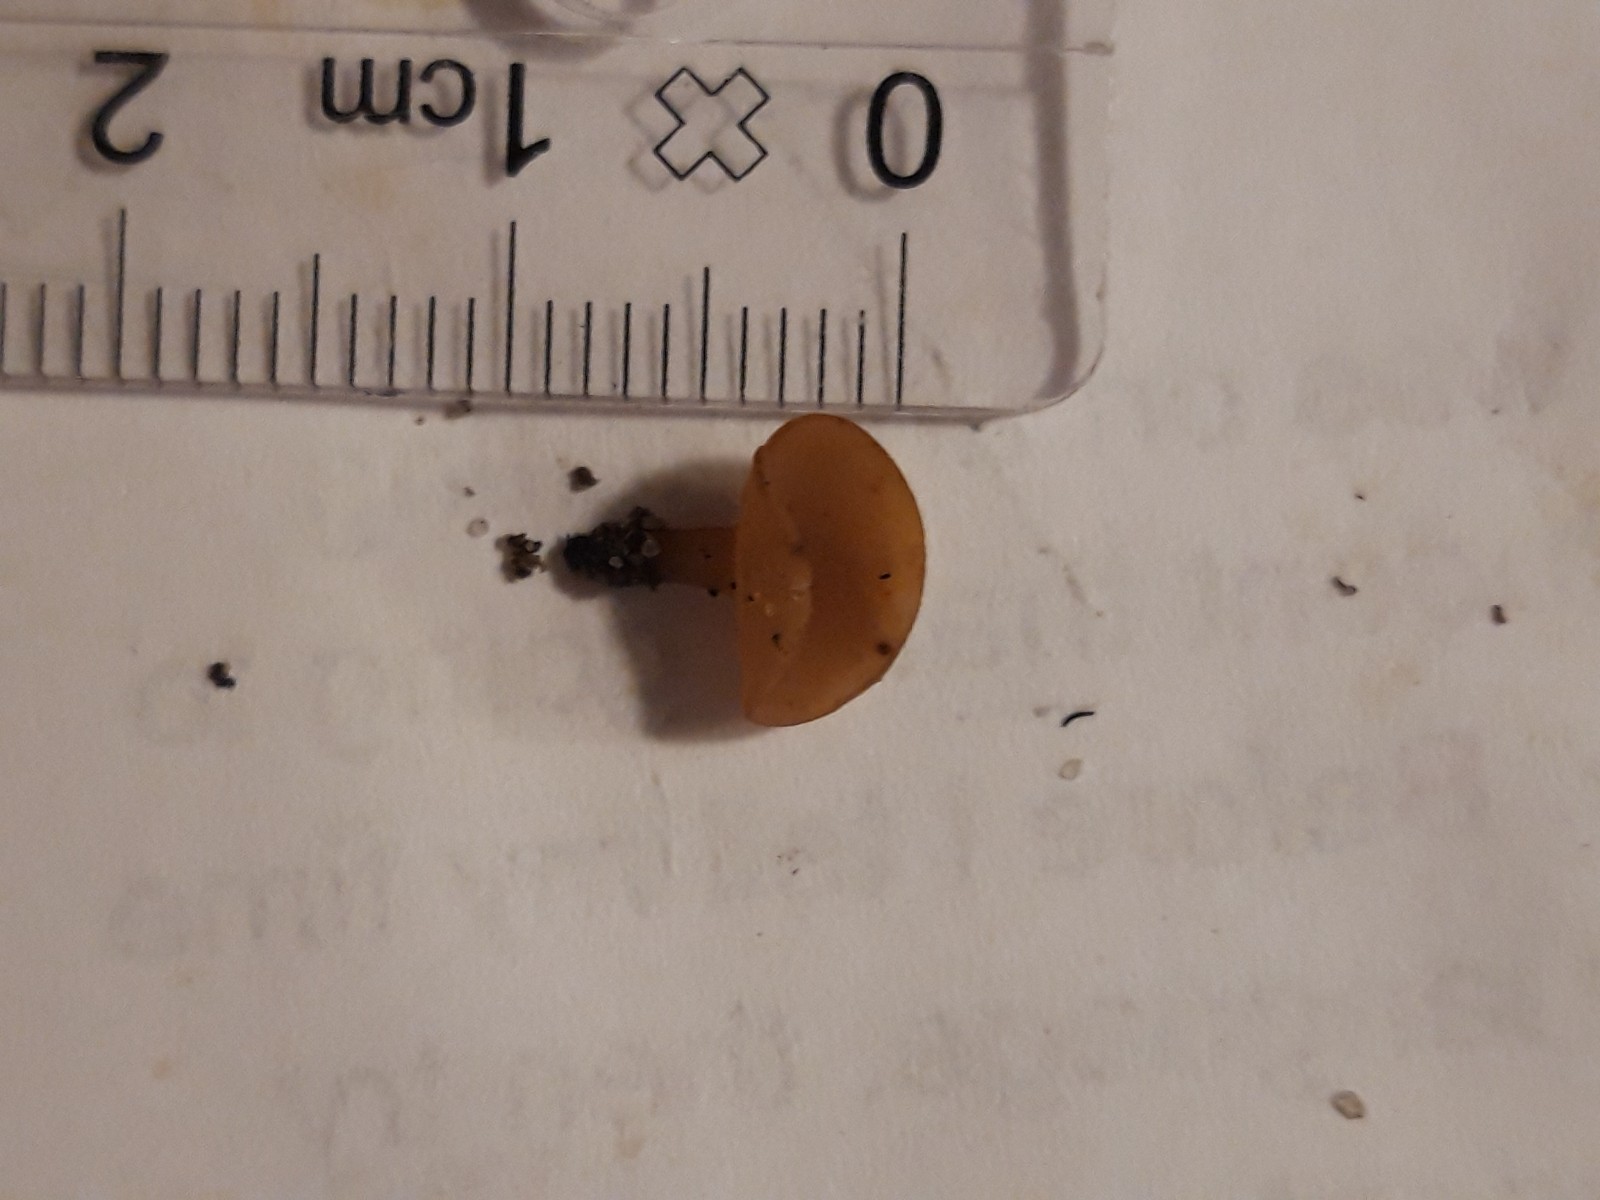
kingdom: Fungi
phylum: Ascomycota
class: Leotiomycetes
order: Helotiales
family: Sclerotiniaceae
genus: Ciboria
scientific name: Ciboria batschiana
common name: agern-knoldskive
